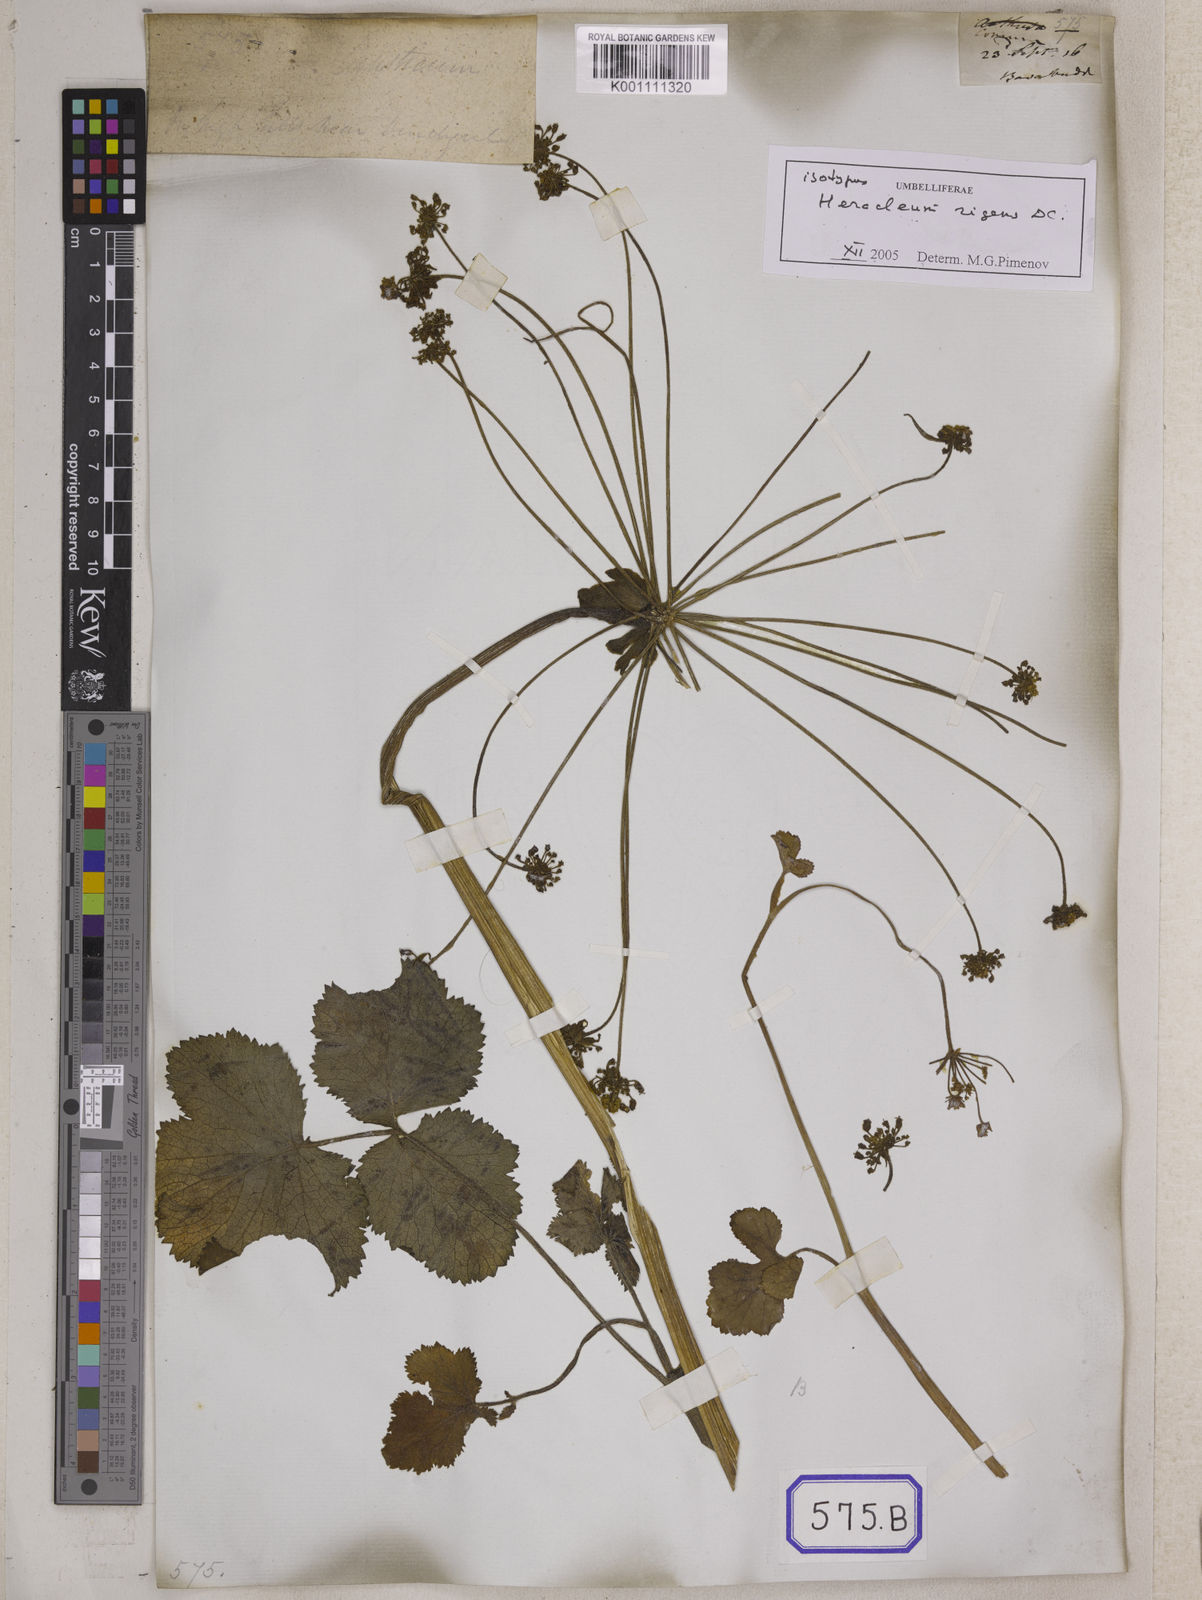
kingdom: Plantae
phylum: Tracheophyta
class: Magnoliopsida
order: Apiales
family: Apiaceae
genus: Heracleum
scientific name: Heracleum
